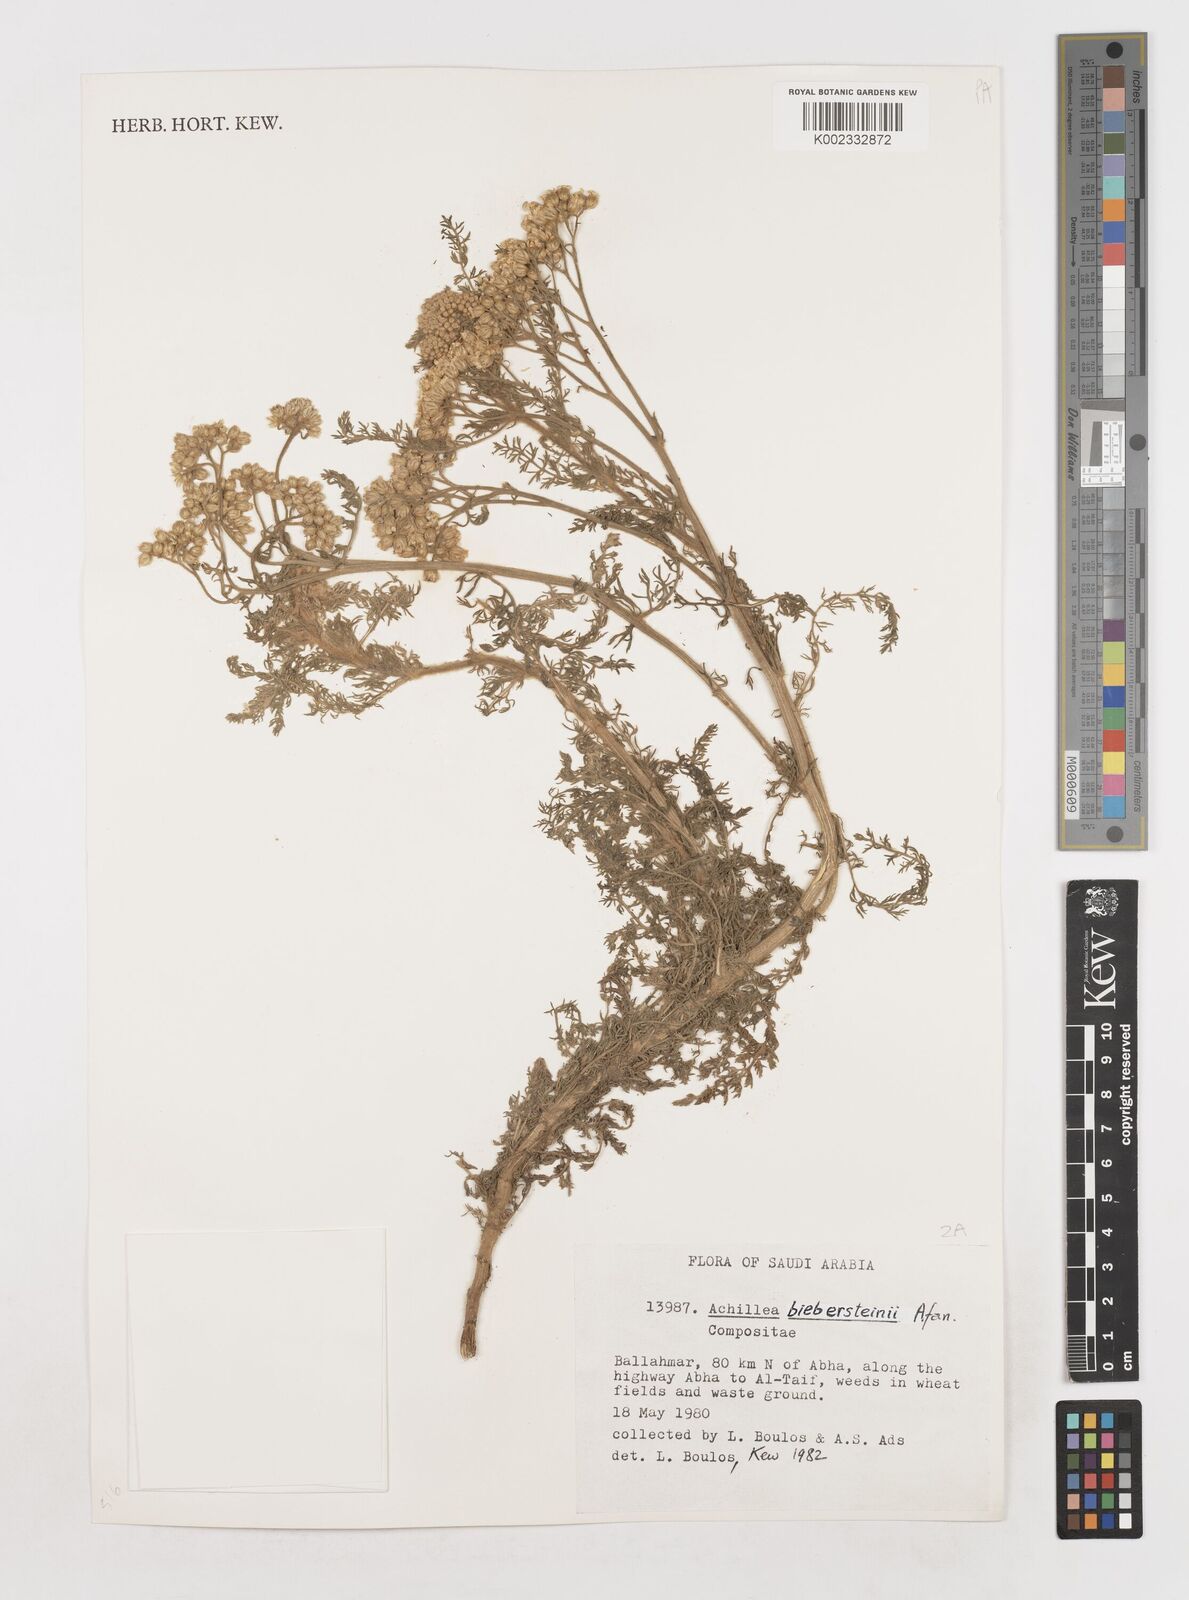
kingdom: Plantae
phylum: Tracheophyta
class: Magnoliopsida
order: Asterales
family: Asteraceae
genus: Achillea
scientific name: Achillea arabica
